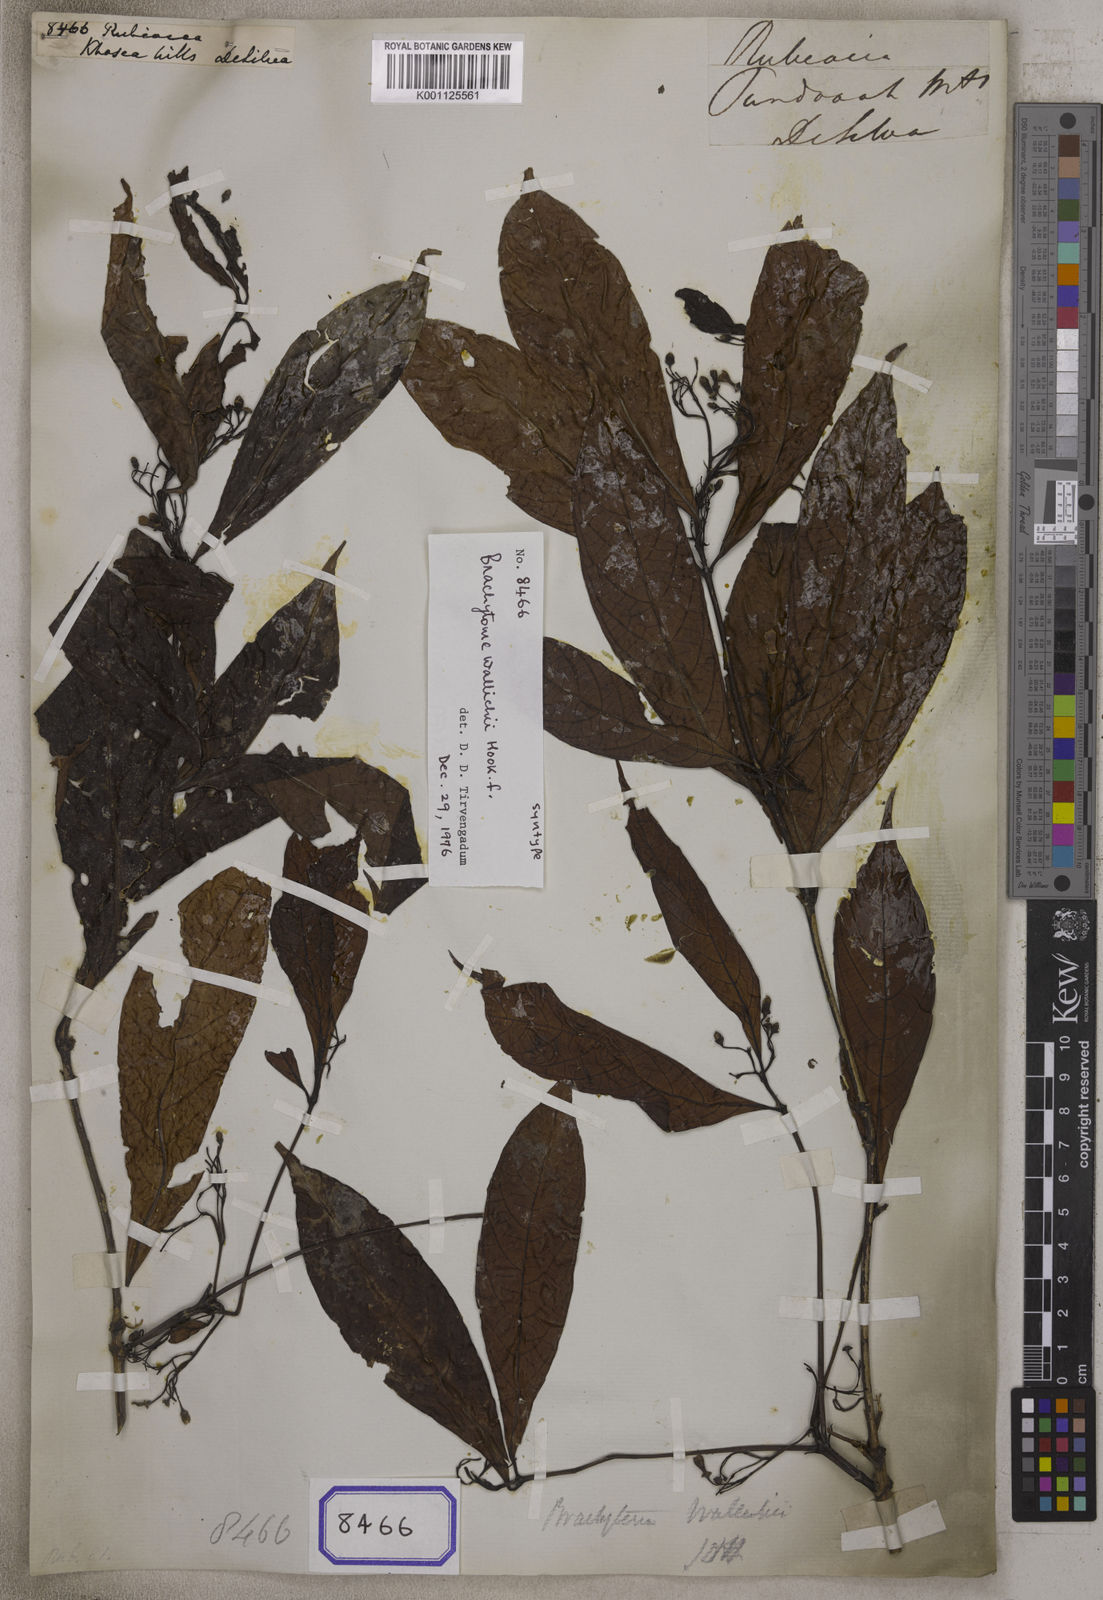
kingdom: Plantae
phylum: Tracheophyta
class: Magnoliopsida
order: Gentianales
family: Rubiaceae
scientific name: Rubiaceae
